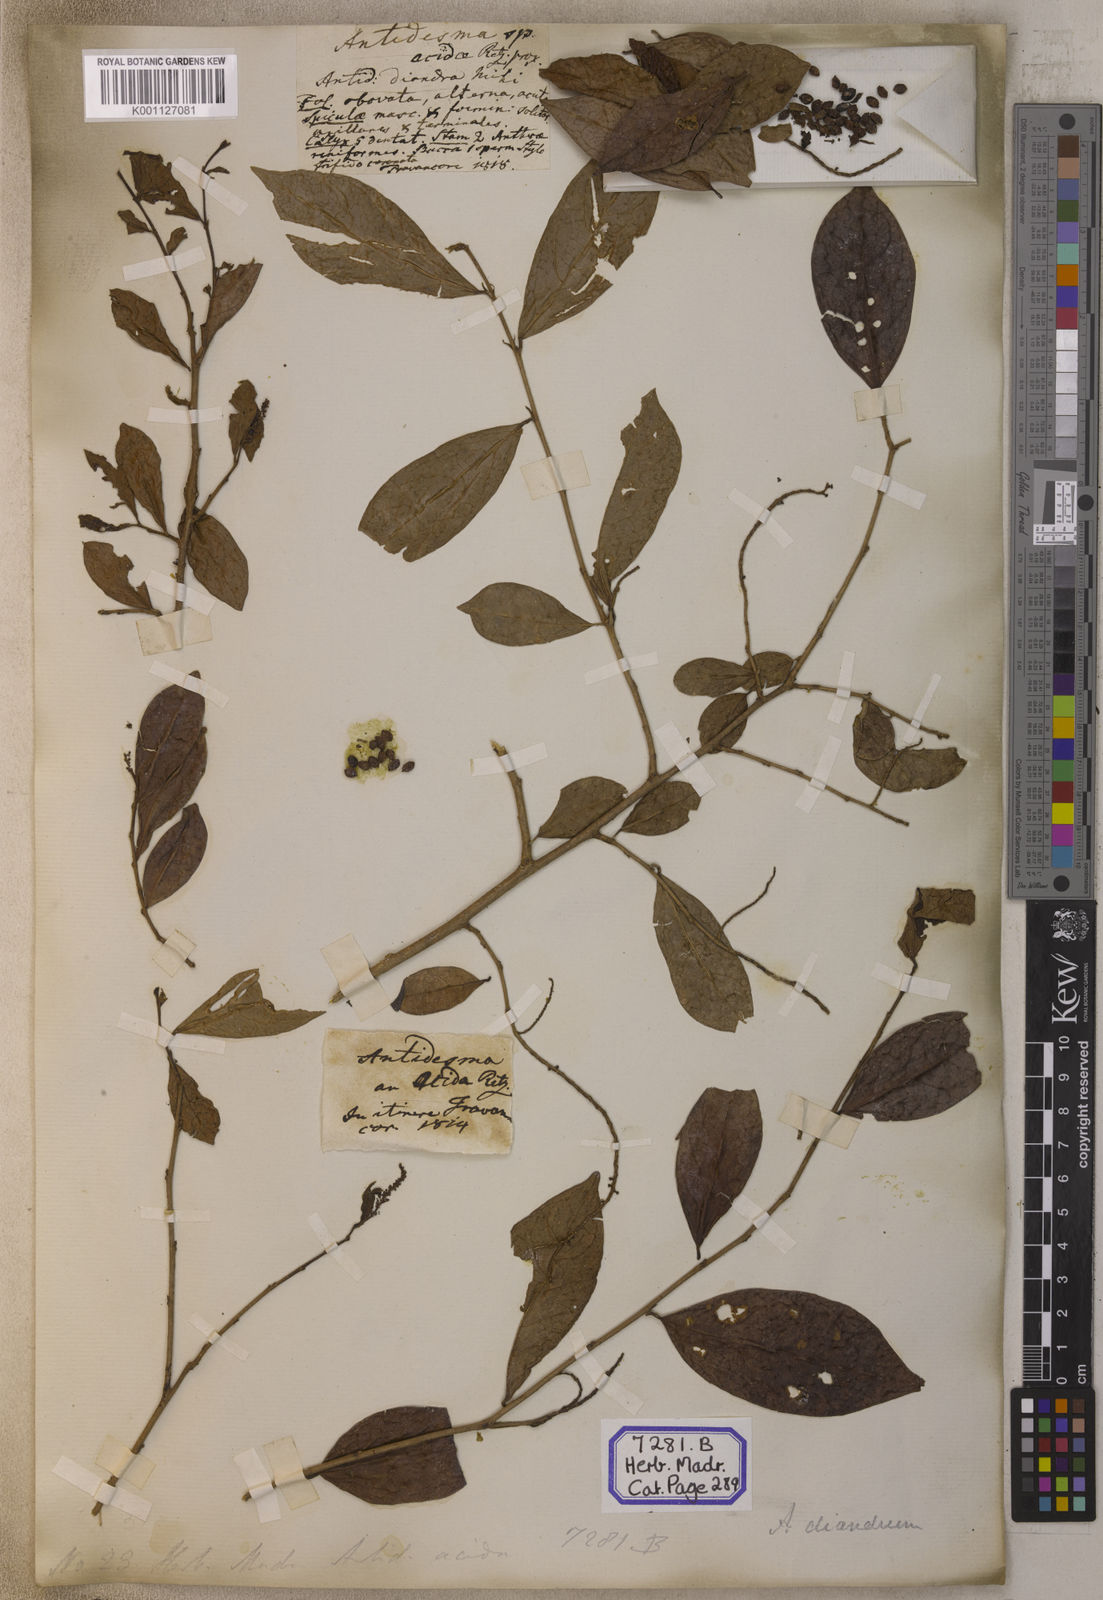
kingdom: Plantae
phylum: Tracheophyta
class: Magnoliopsida
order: Malpighiales
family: Phyllanthaceae
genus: Antidesma
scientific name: Antidesma acidum
